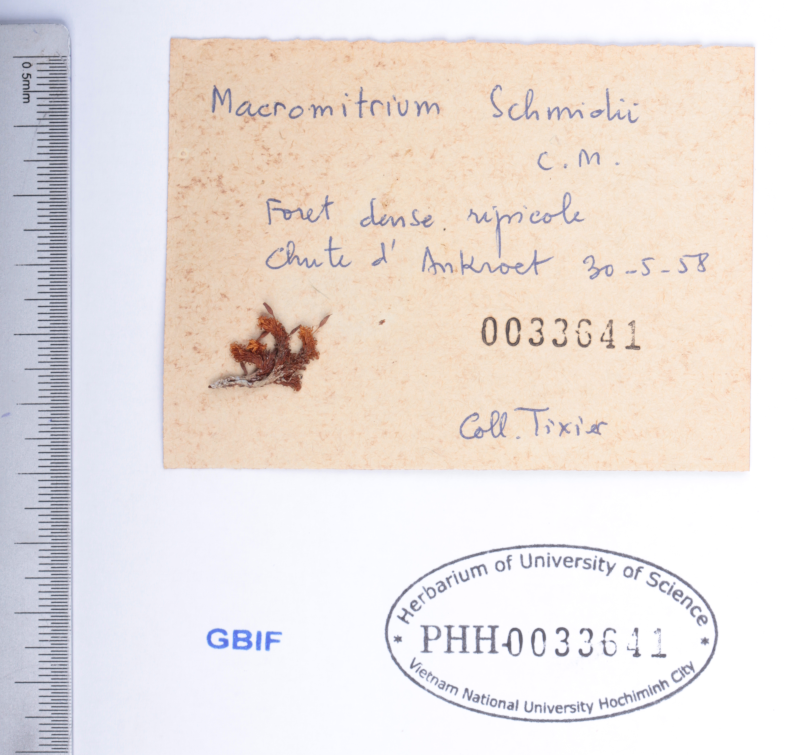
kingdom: Plantae
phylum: Bryophyta
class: Bryopsida
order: Orthotrichales
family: Orthotrichaceae
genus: Macromitrium
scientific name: Macromitrium schmidii
